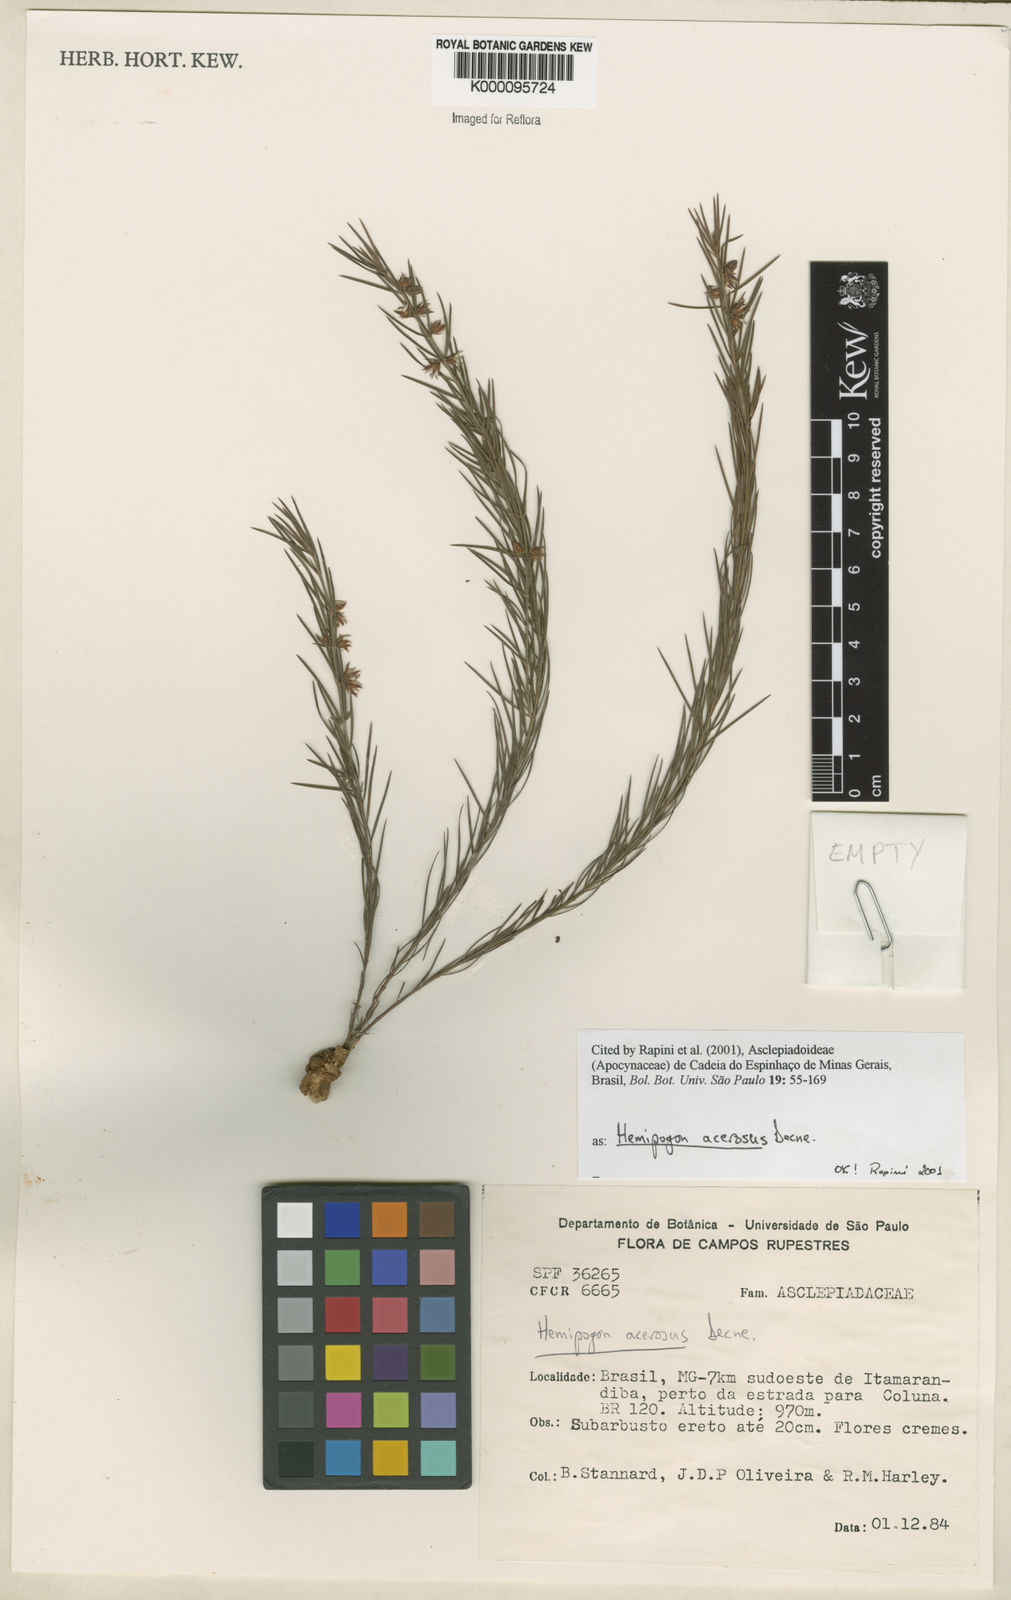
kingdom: Plantae
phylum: Tracheophyta
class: Magnoliopsida
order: Gentianales
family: Apocynaceae
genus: Hemipogon
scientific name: Hemipogon acerosus
